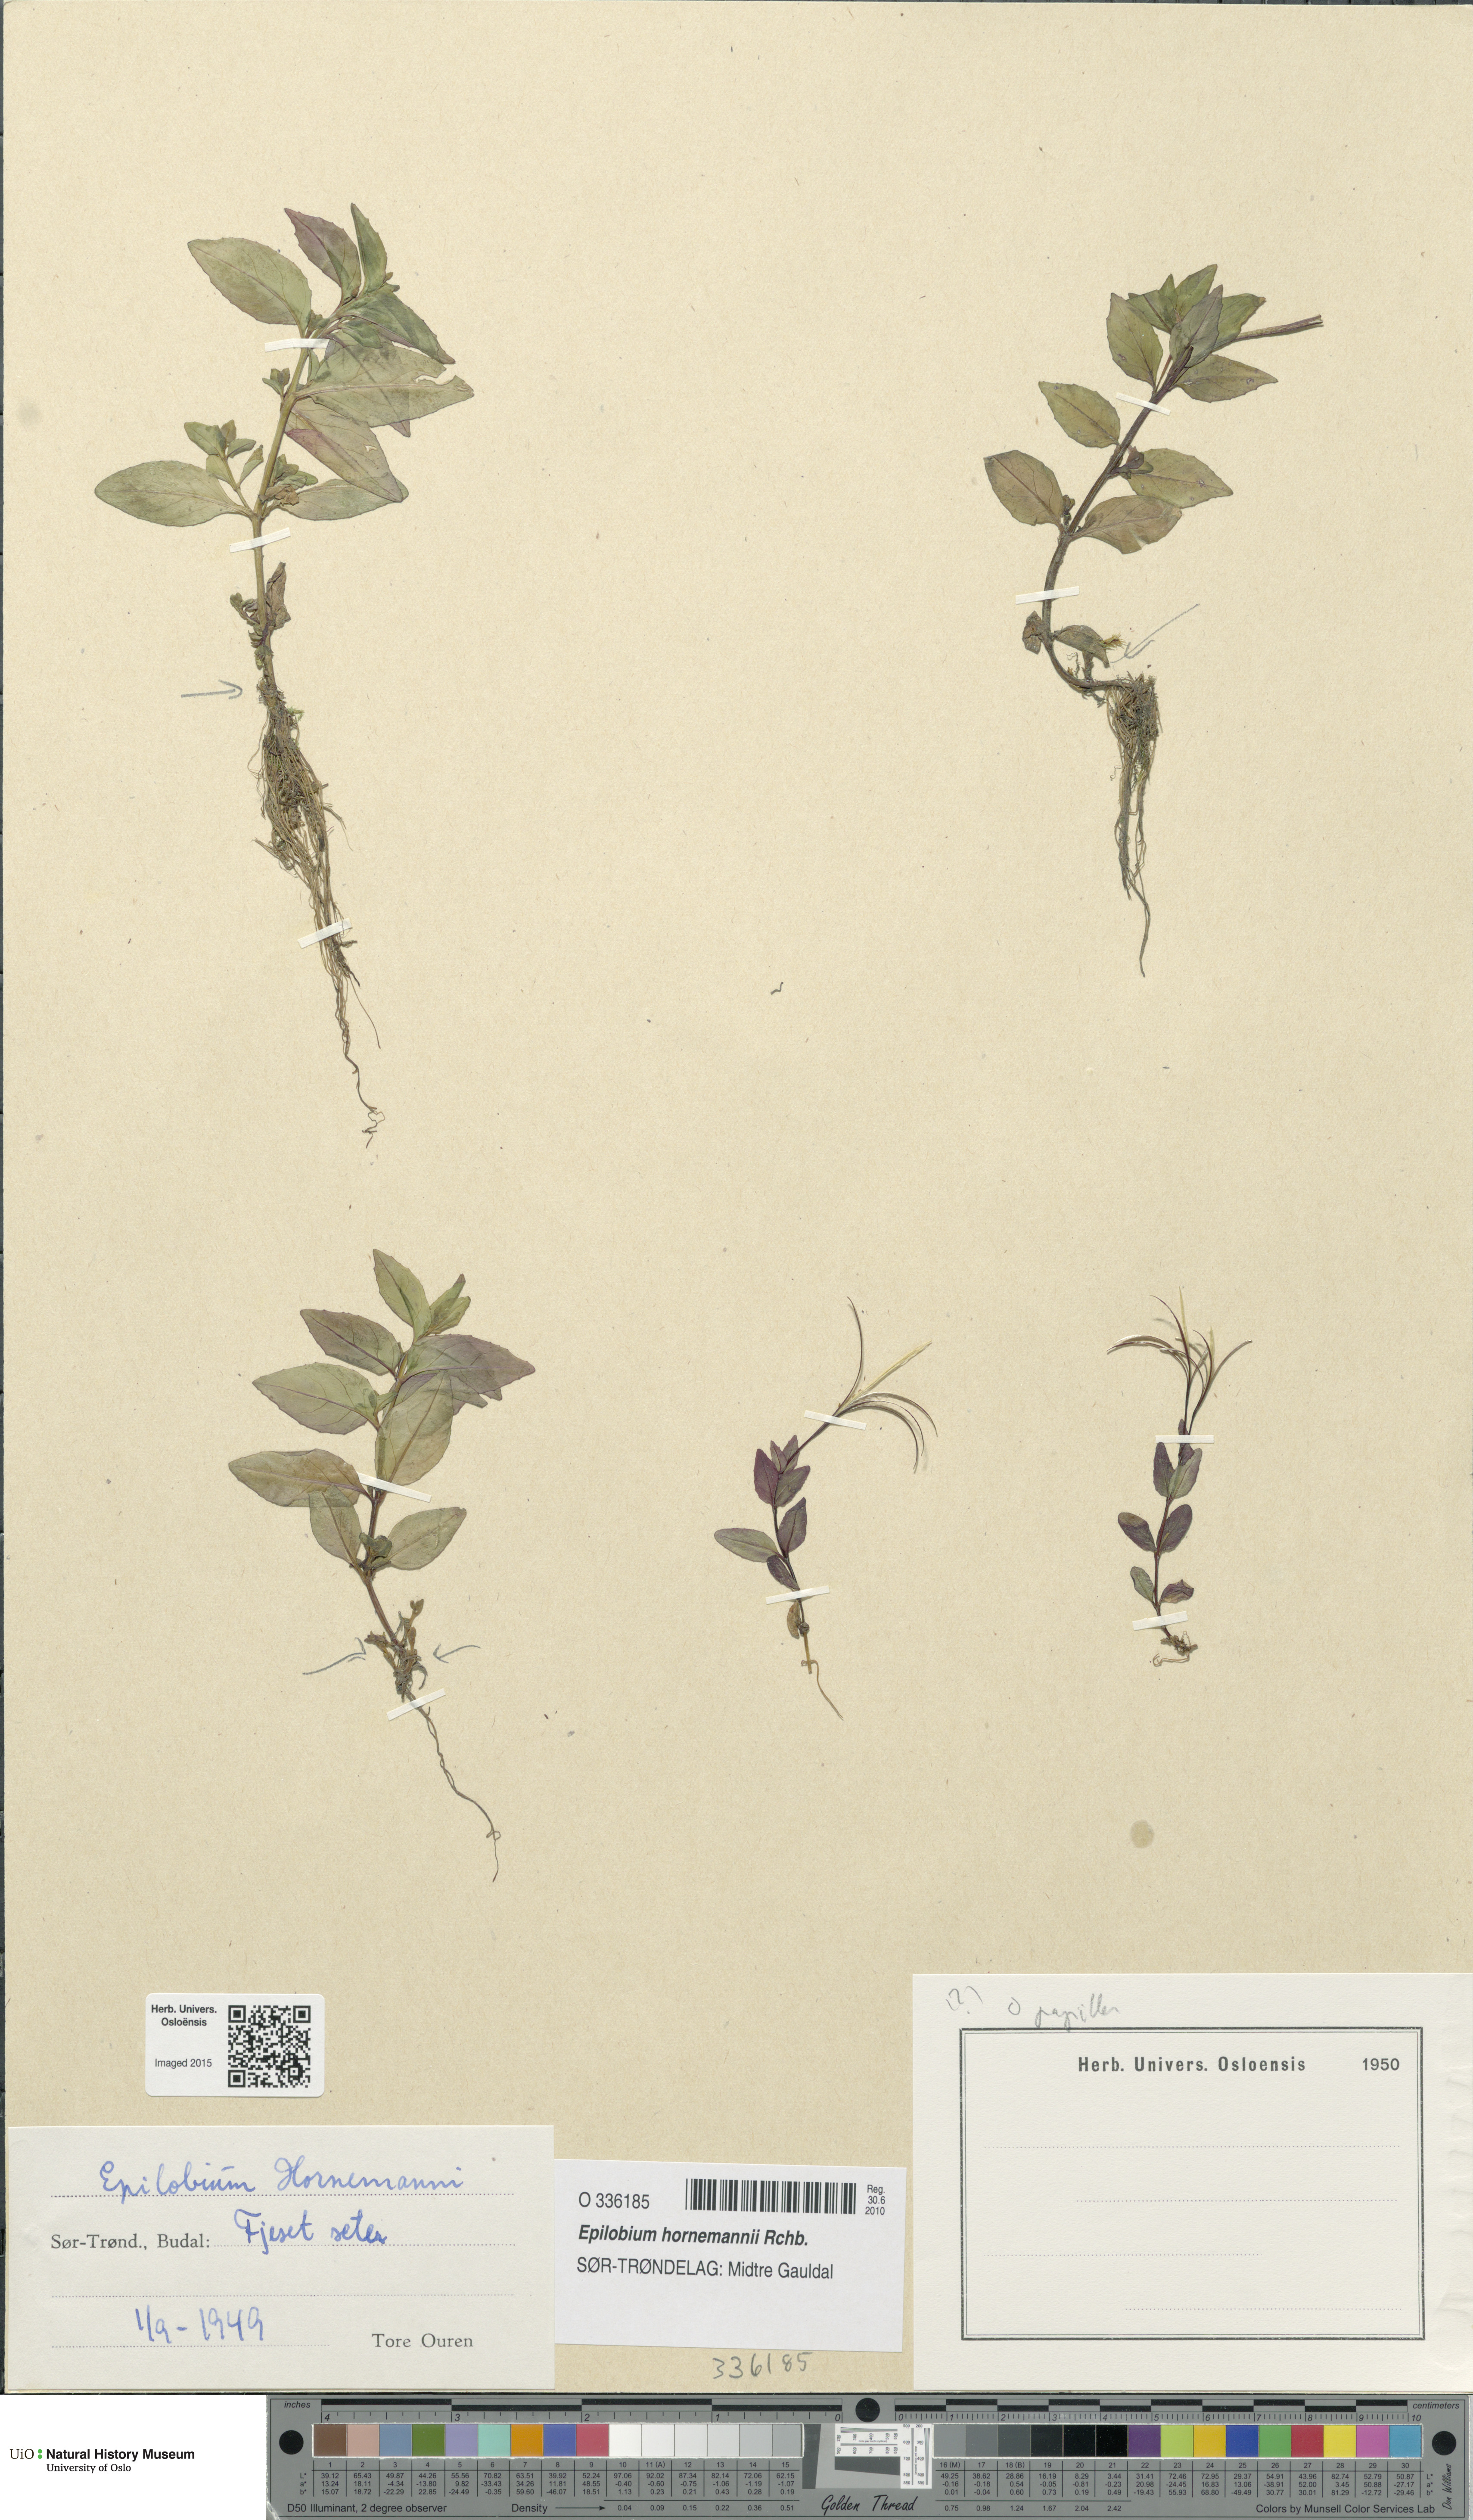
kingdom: Plantae
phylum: Tracheophyta
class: Magnoliopsida
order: Myrtales
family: Onagraceae
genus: Epilobium
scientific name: Epilobium hornemannii
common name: Hornemann's willowherb
